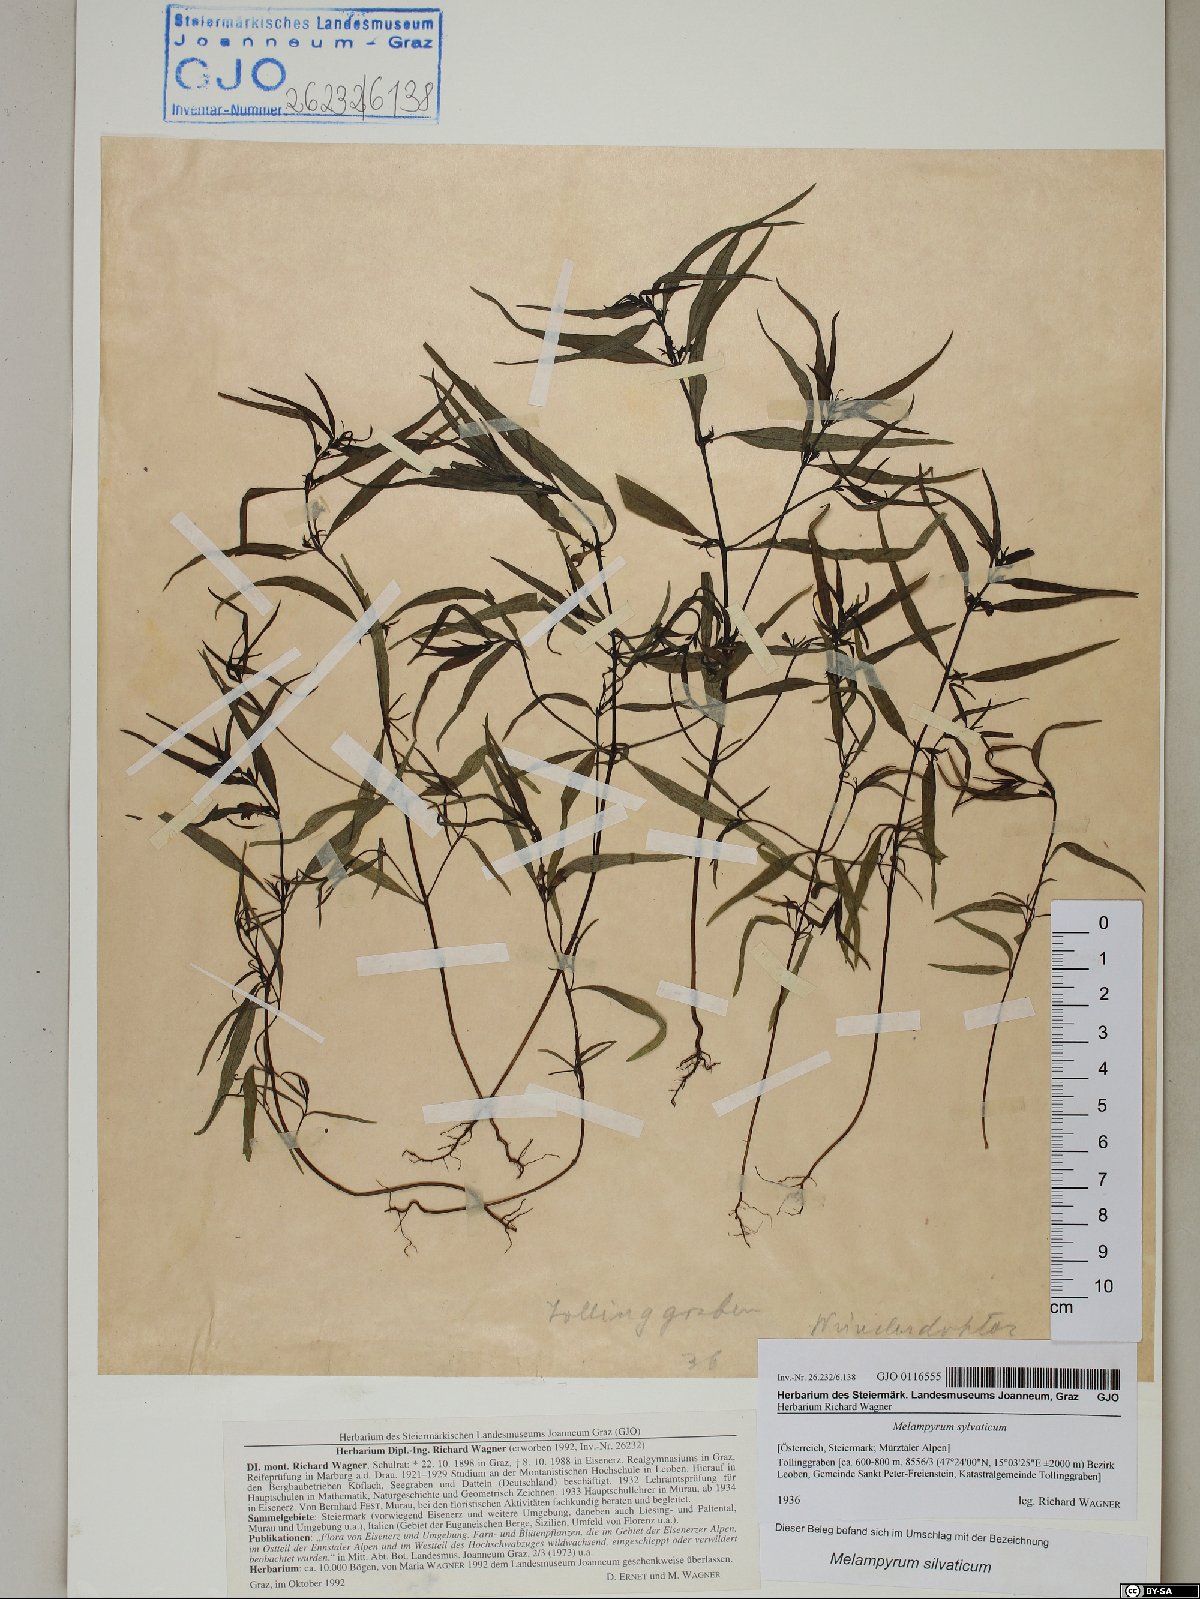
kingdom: Plantae
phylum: Tracheophyta
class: Magnoliopsida
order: Lamiales
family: Orobanchaceae
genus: Melampyrum
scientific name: Melampyrum sylvaticum
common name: Small cow-wheat
